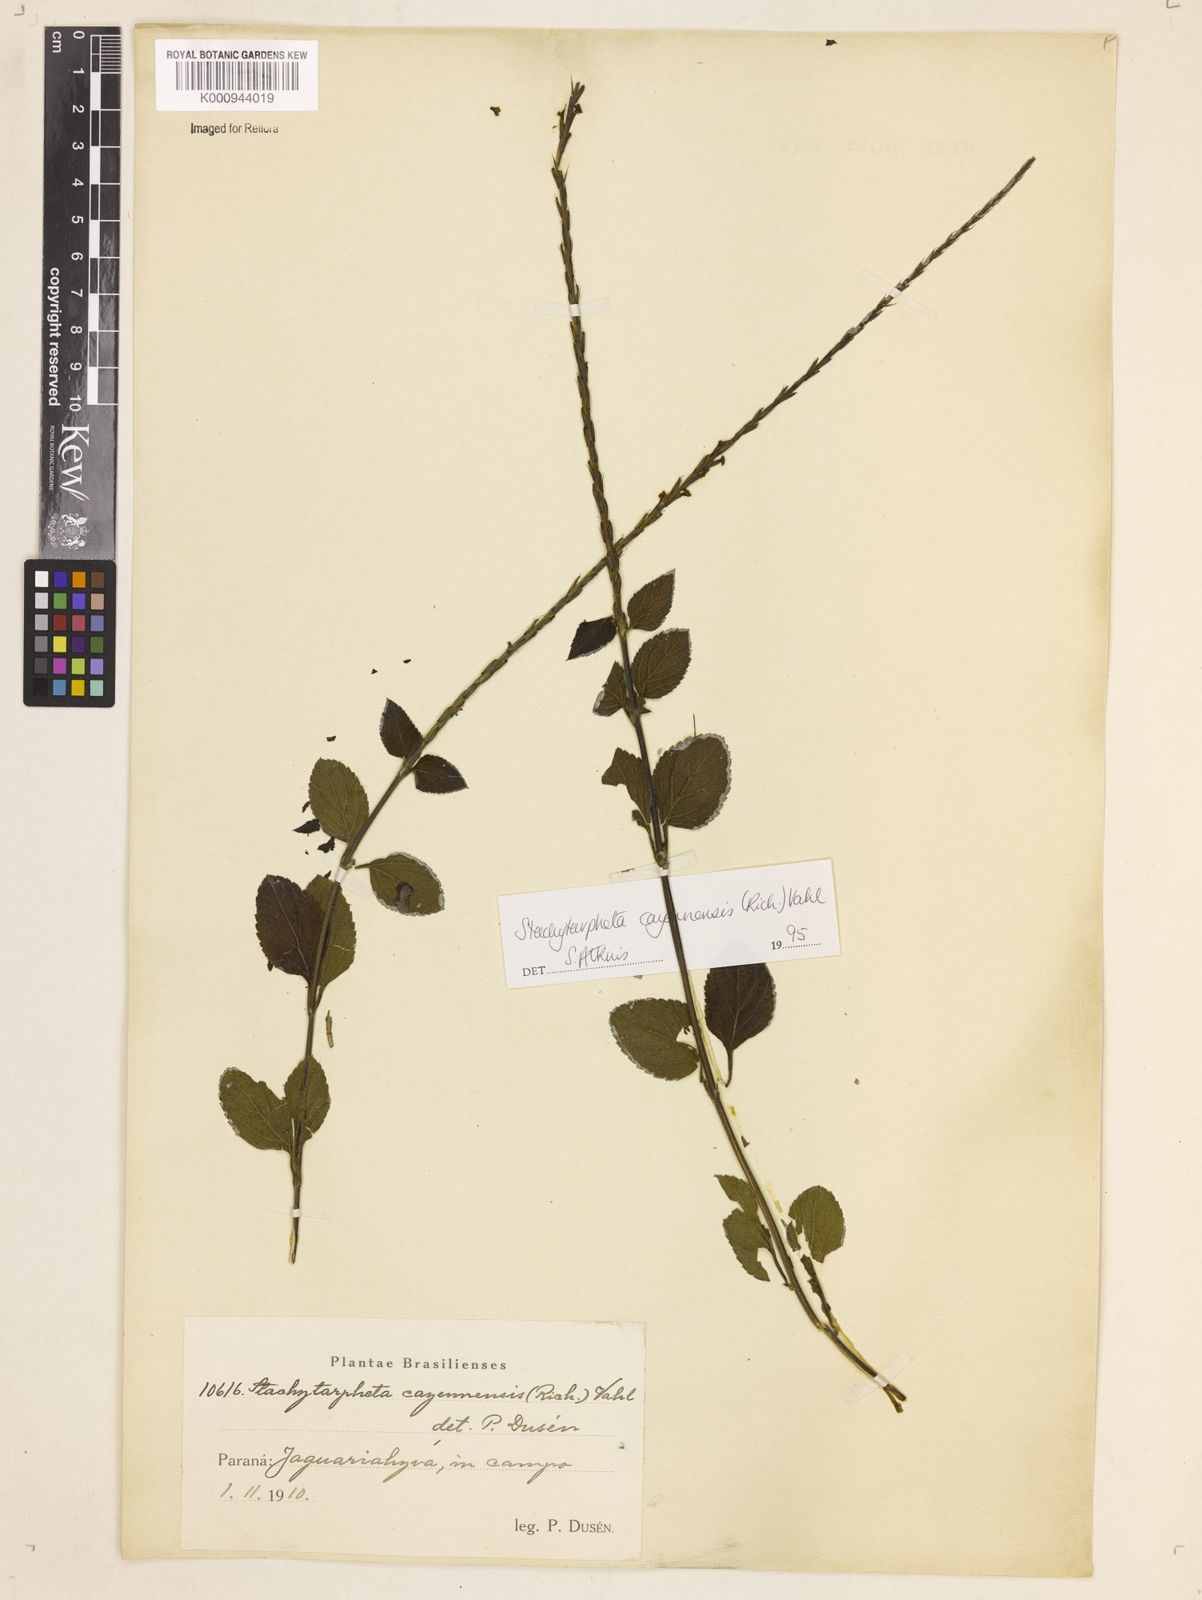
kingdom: Plantae
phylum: Tracheophyta
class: Magnoliopsida
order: Lamiales
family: Verbenaceae
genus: Aloysia
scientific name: Aloysia
